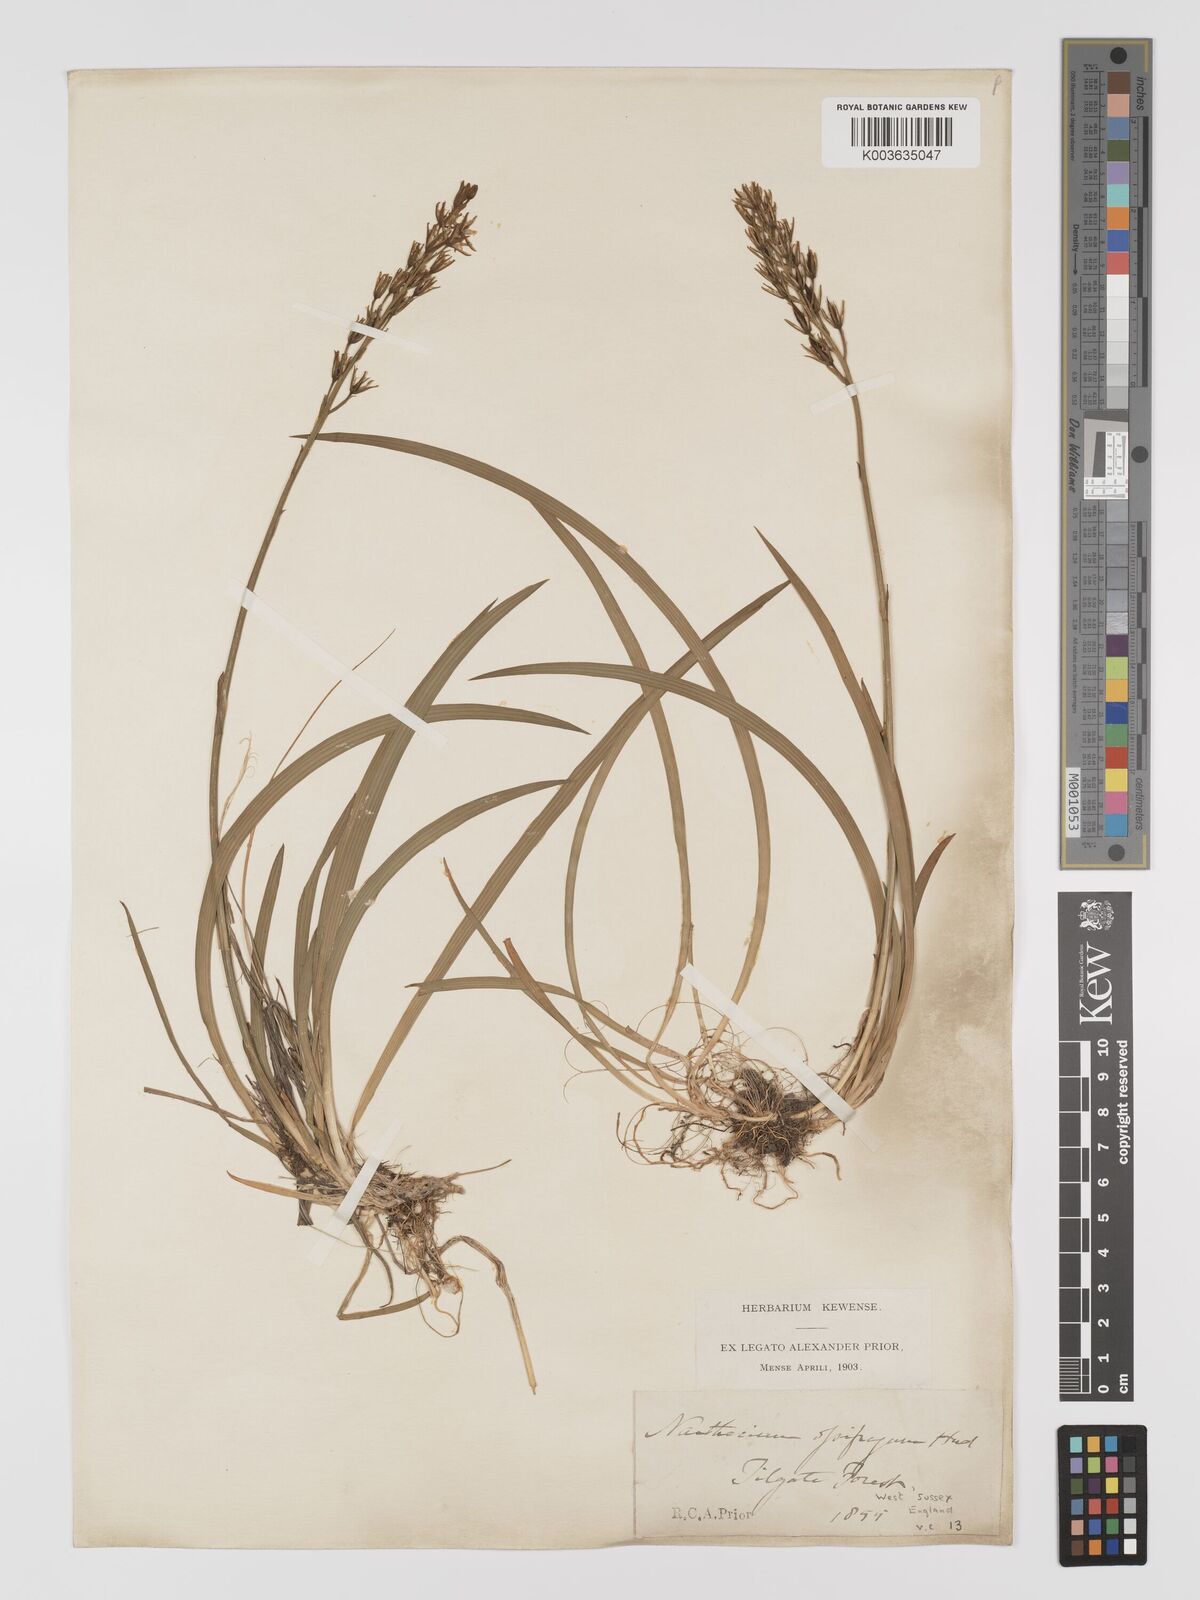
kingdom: Plantae
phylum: Tracheophyta
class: Liliopsida
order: Dioscoreales
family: Nartheciaceae
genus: Narthecium
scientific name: Narthecium
